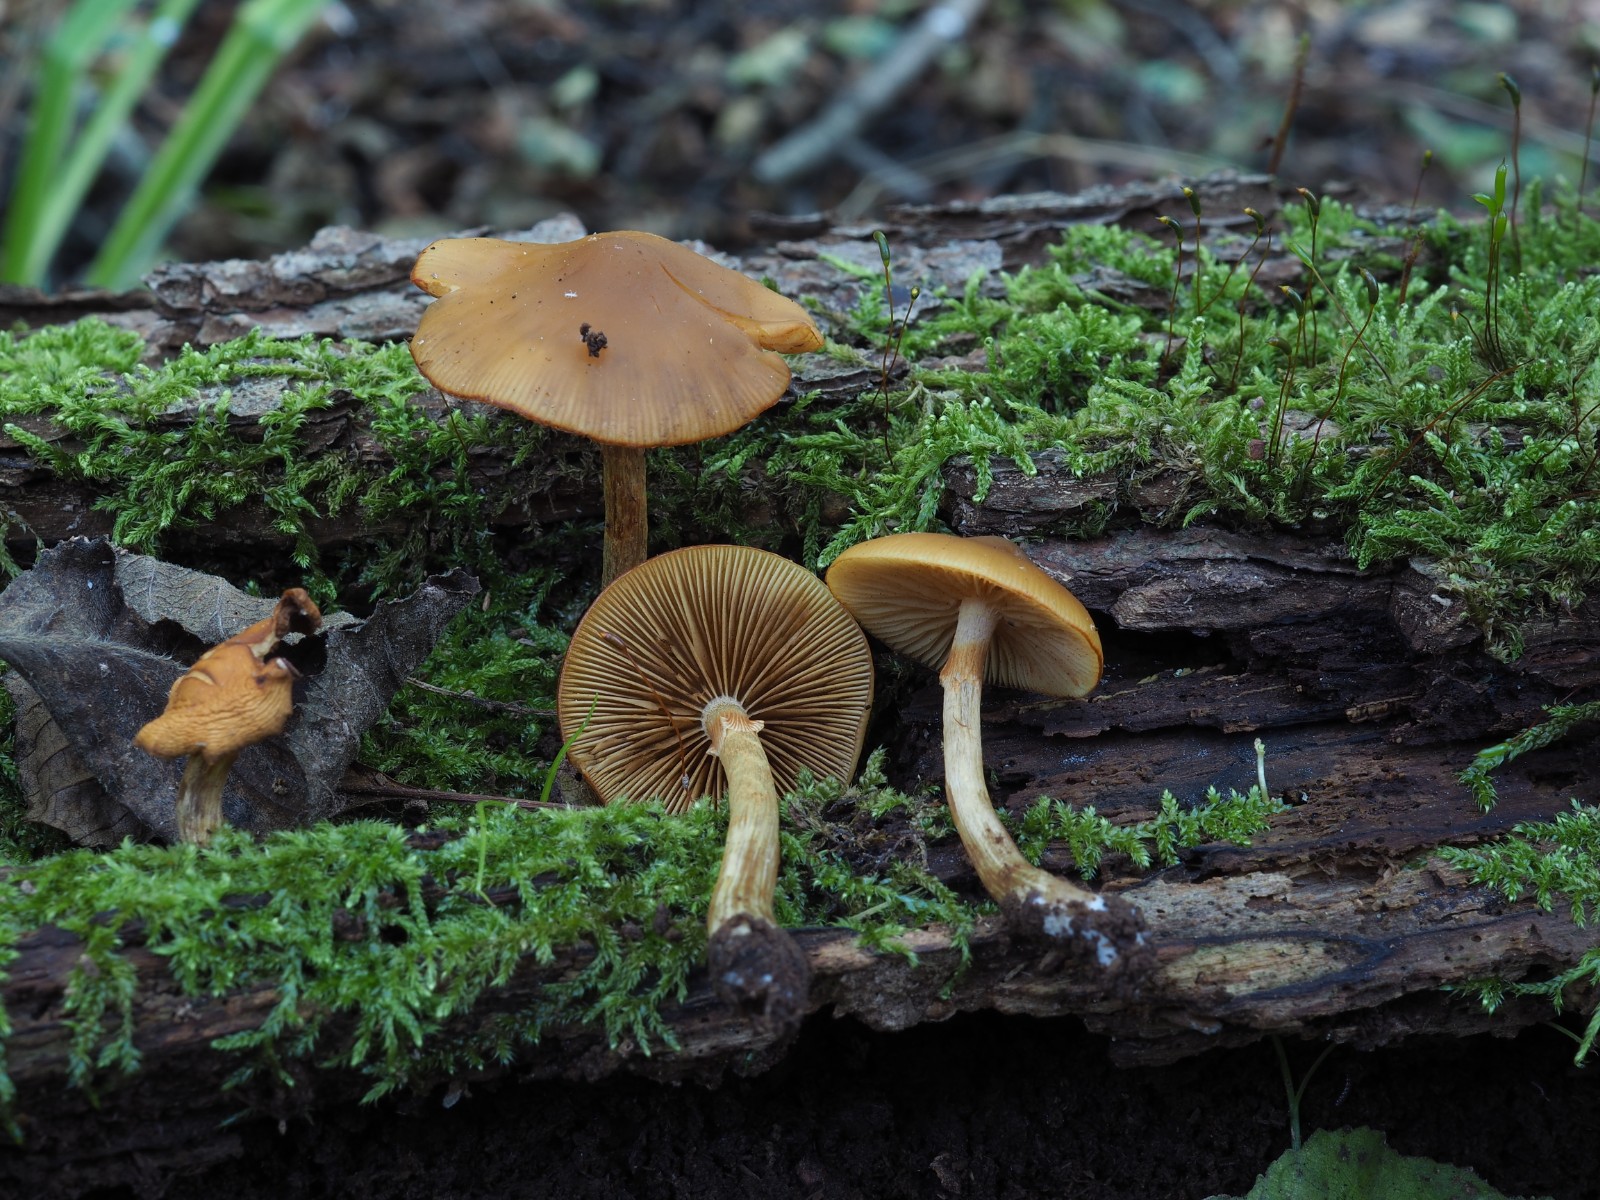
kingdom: Fungi
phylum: Basidiomycota
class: Agaricomycetes
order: Agaricales
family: Hymenogastraceae
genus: Galerina
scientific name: Galerina marginata
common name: randbæltet hjelmhat
